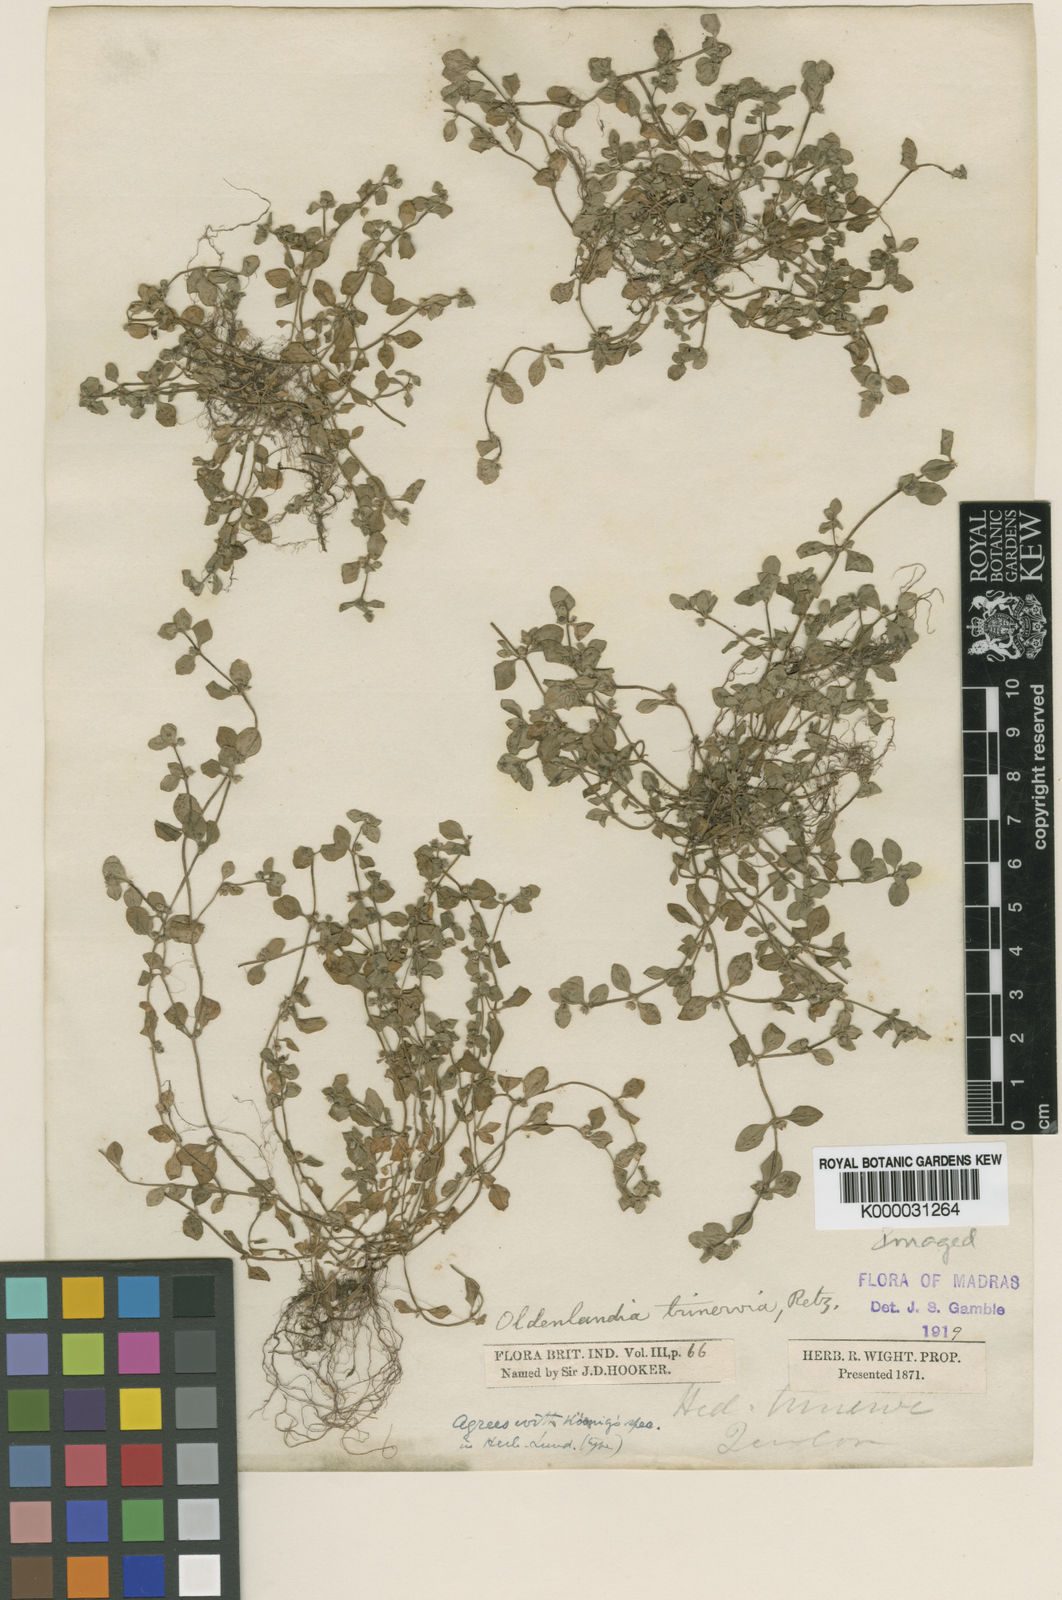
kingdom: Plantae
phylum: Tracheophyta
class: Magnoliopsida
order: Gentianales
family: Rubiaceae
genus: Edrastima
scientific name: Edrastima trinervia
